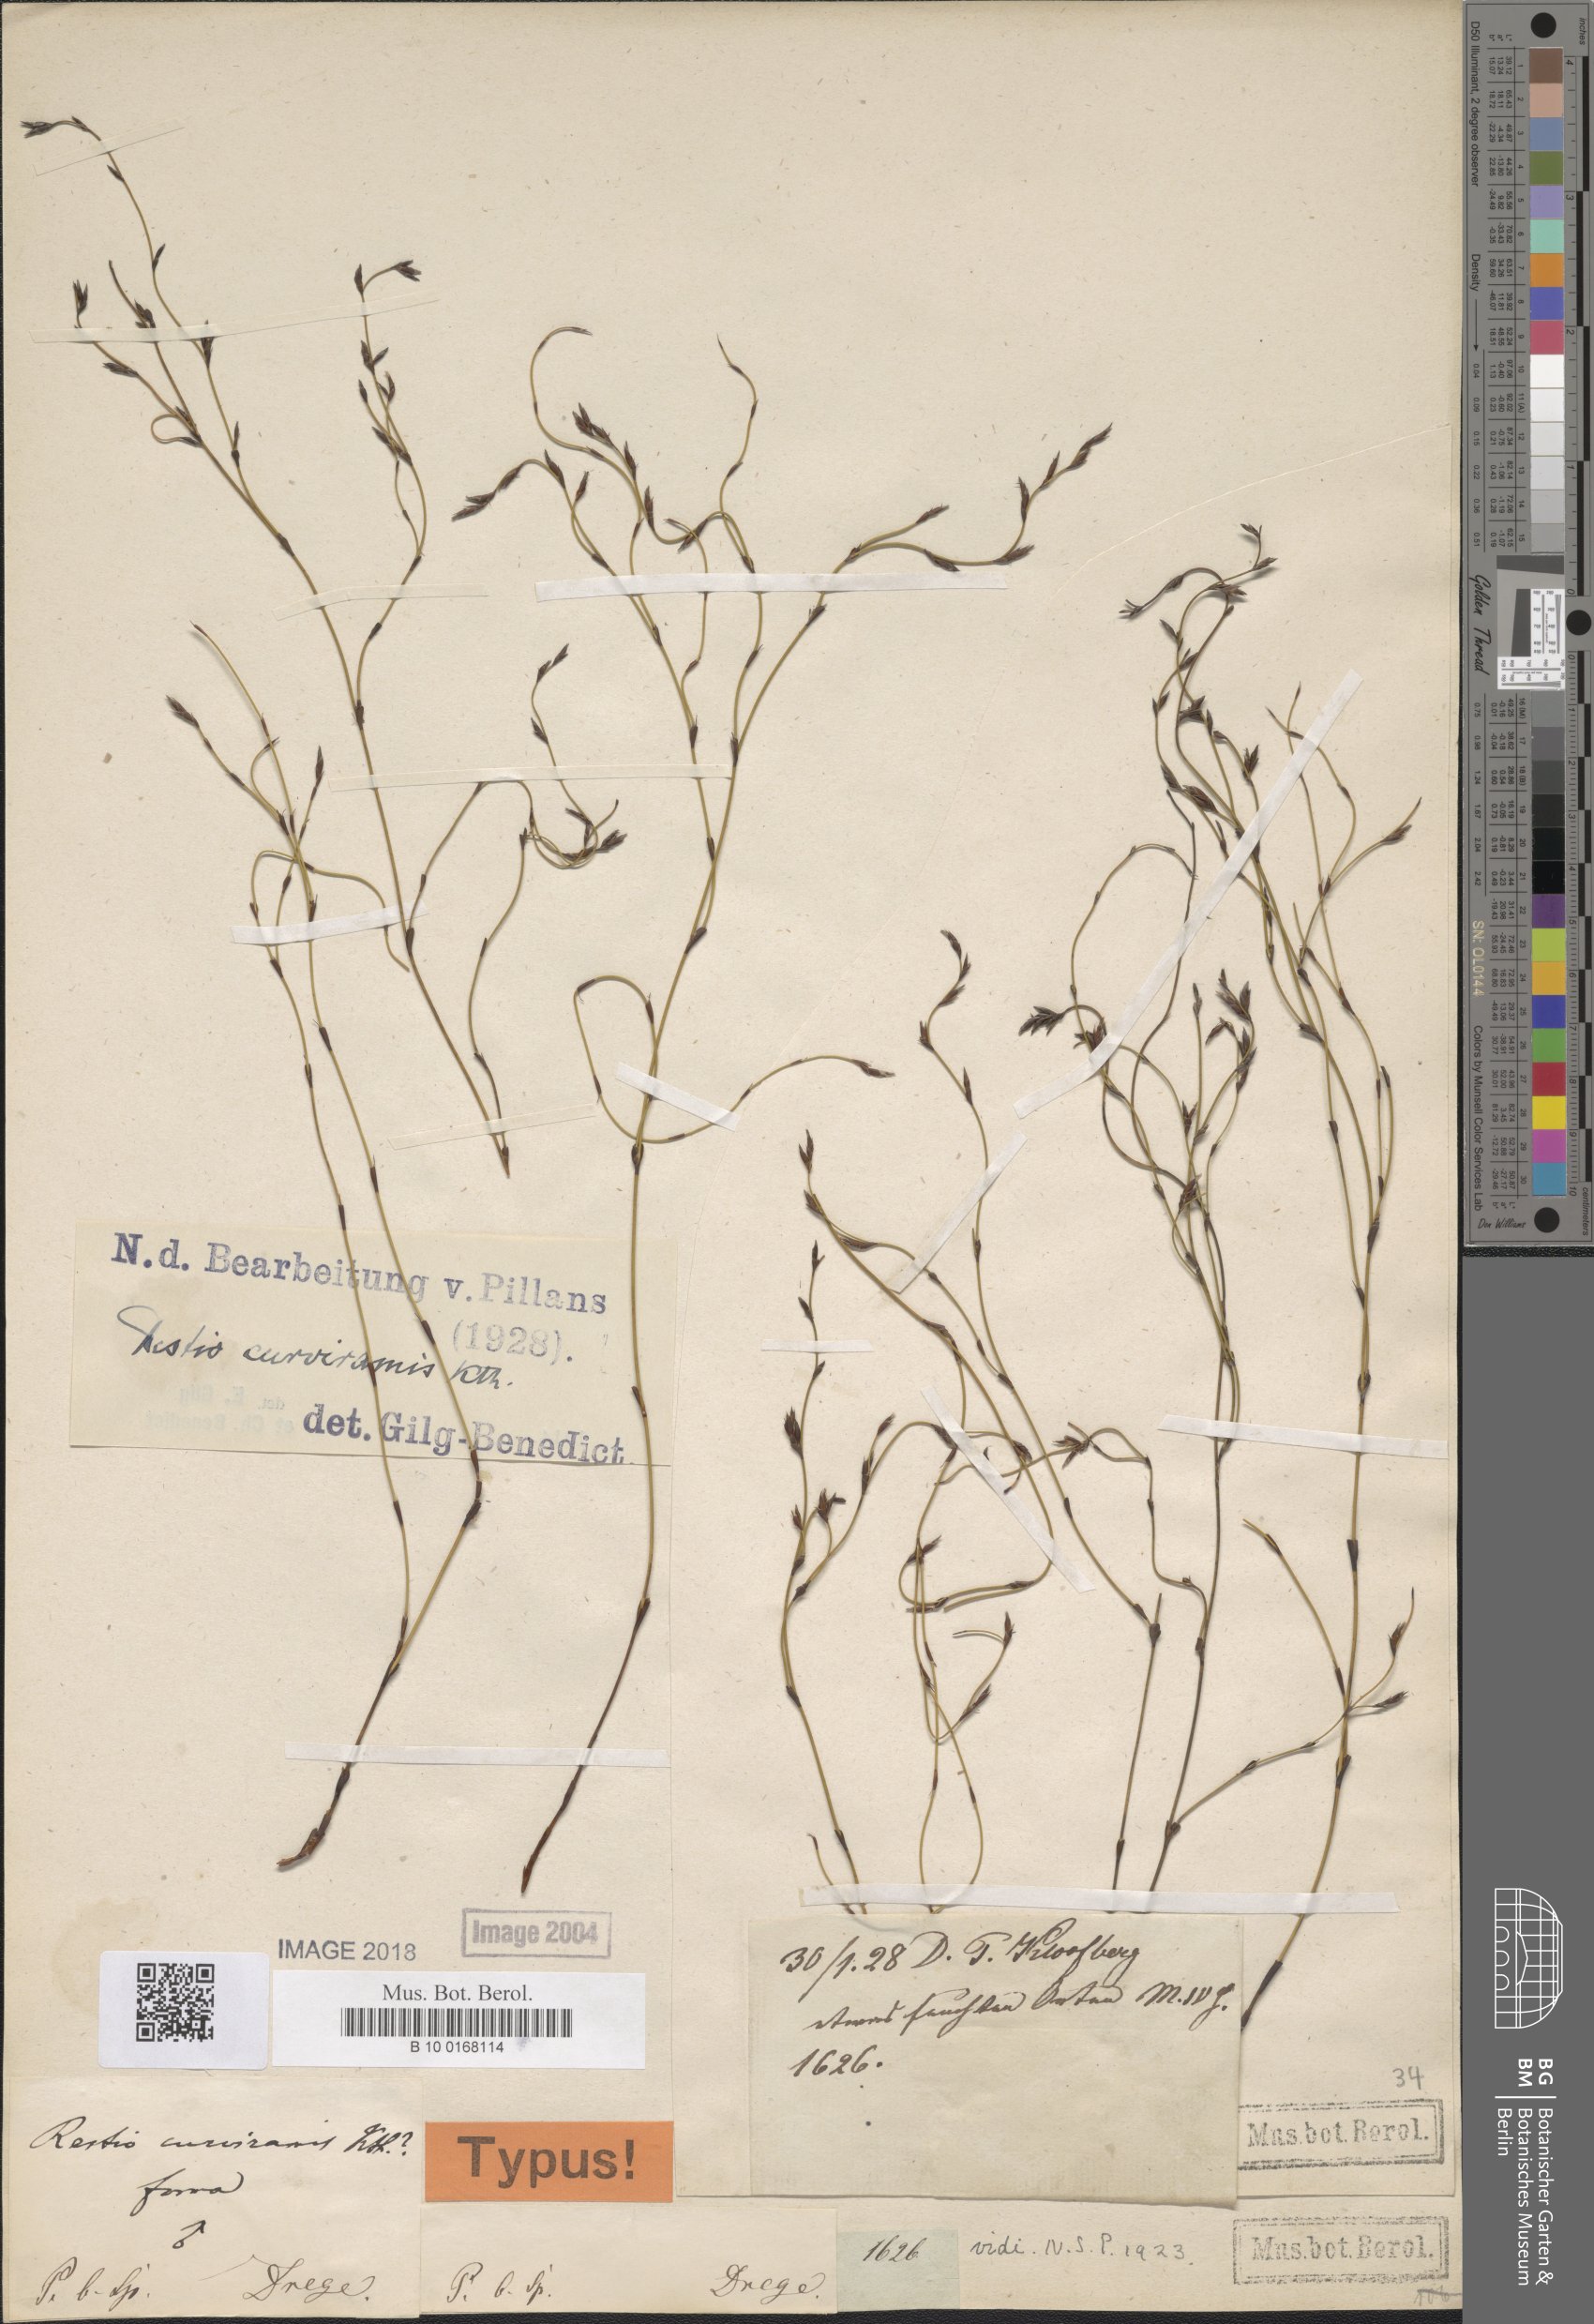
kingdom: Plantae
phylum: Tracheophyta
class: Liliopsida
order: Poales
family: Restionaceae
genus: Restio
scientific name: Restio curviramis
